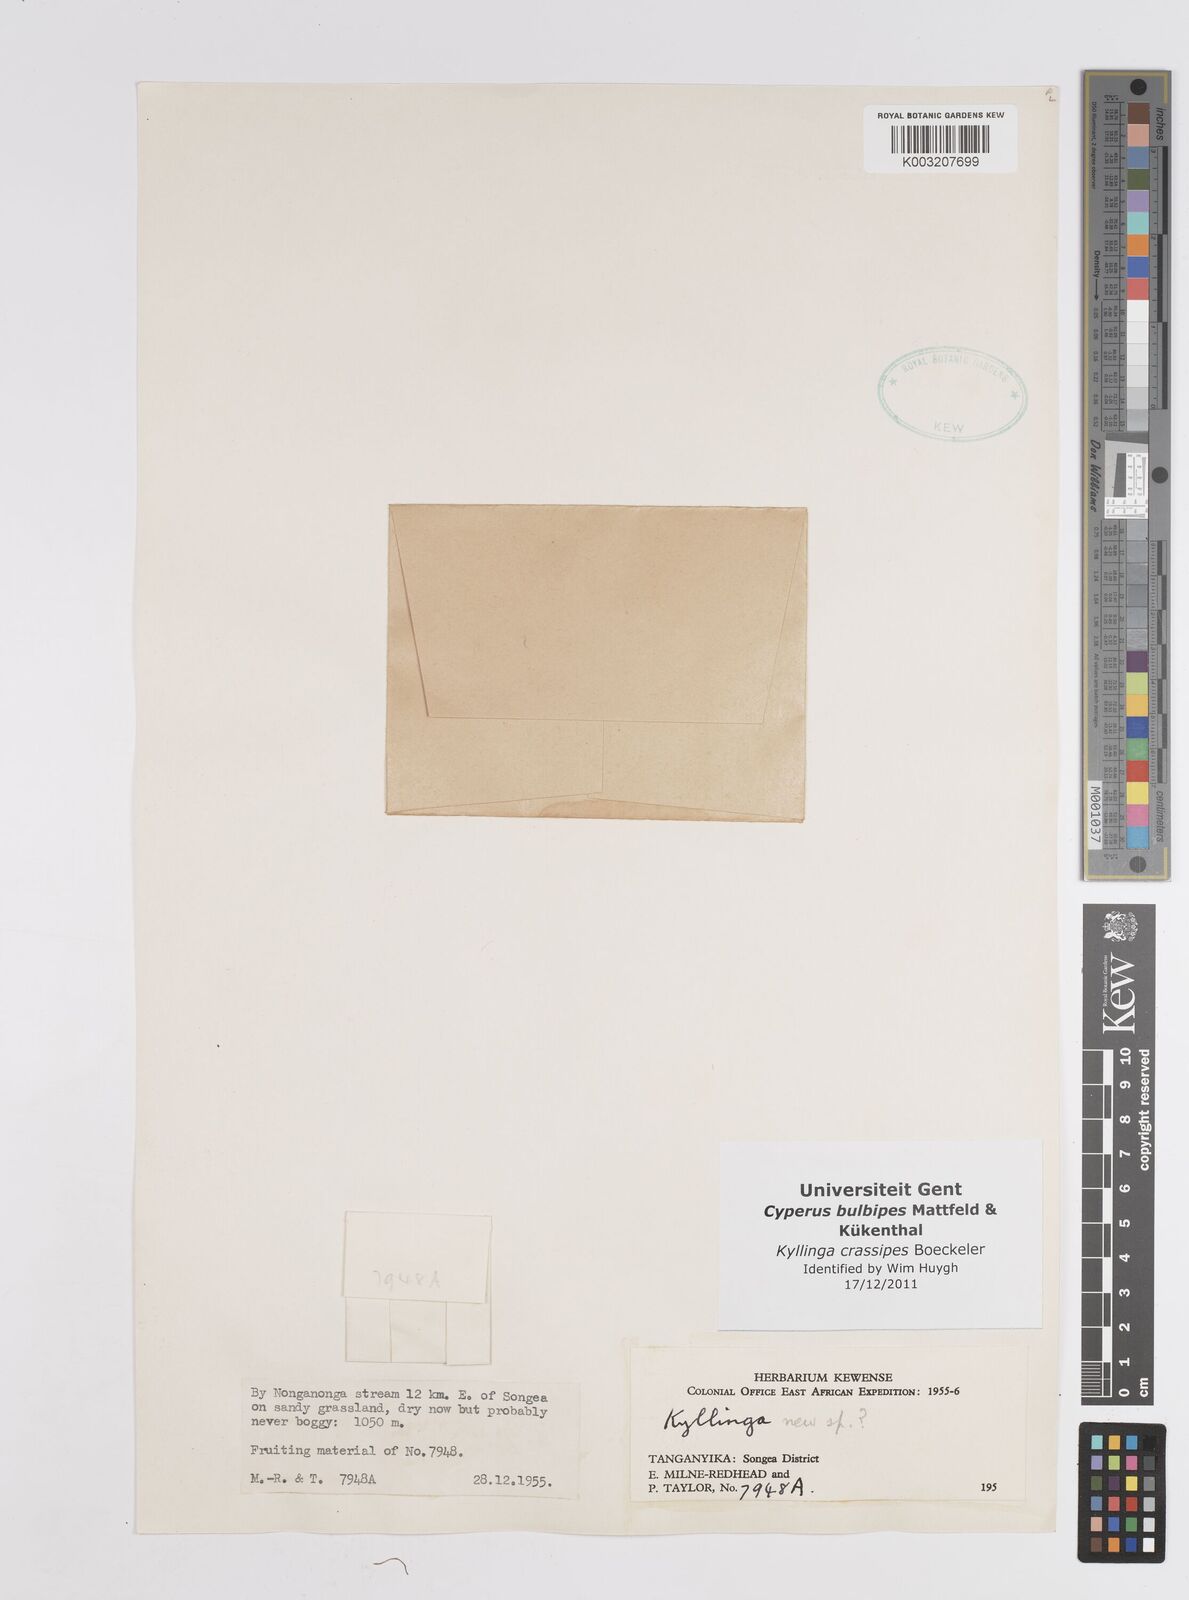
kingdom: Plantae
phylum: Tracheophyta
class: Liliopsida
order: Poales
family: Cyperaceae
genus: Cyperus
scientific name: Cyperus crassipes
